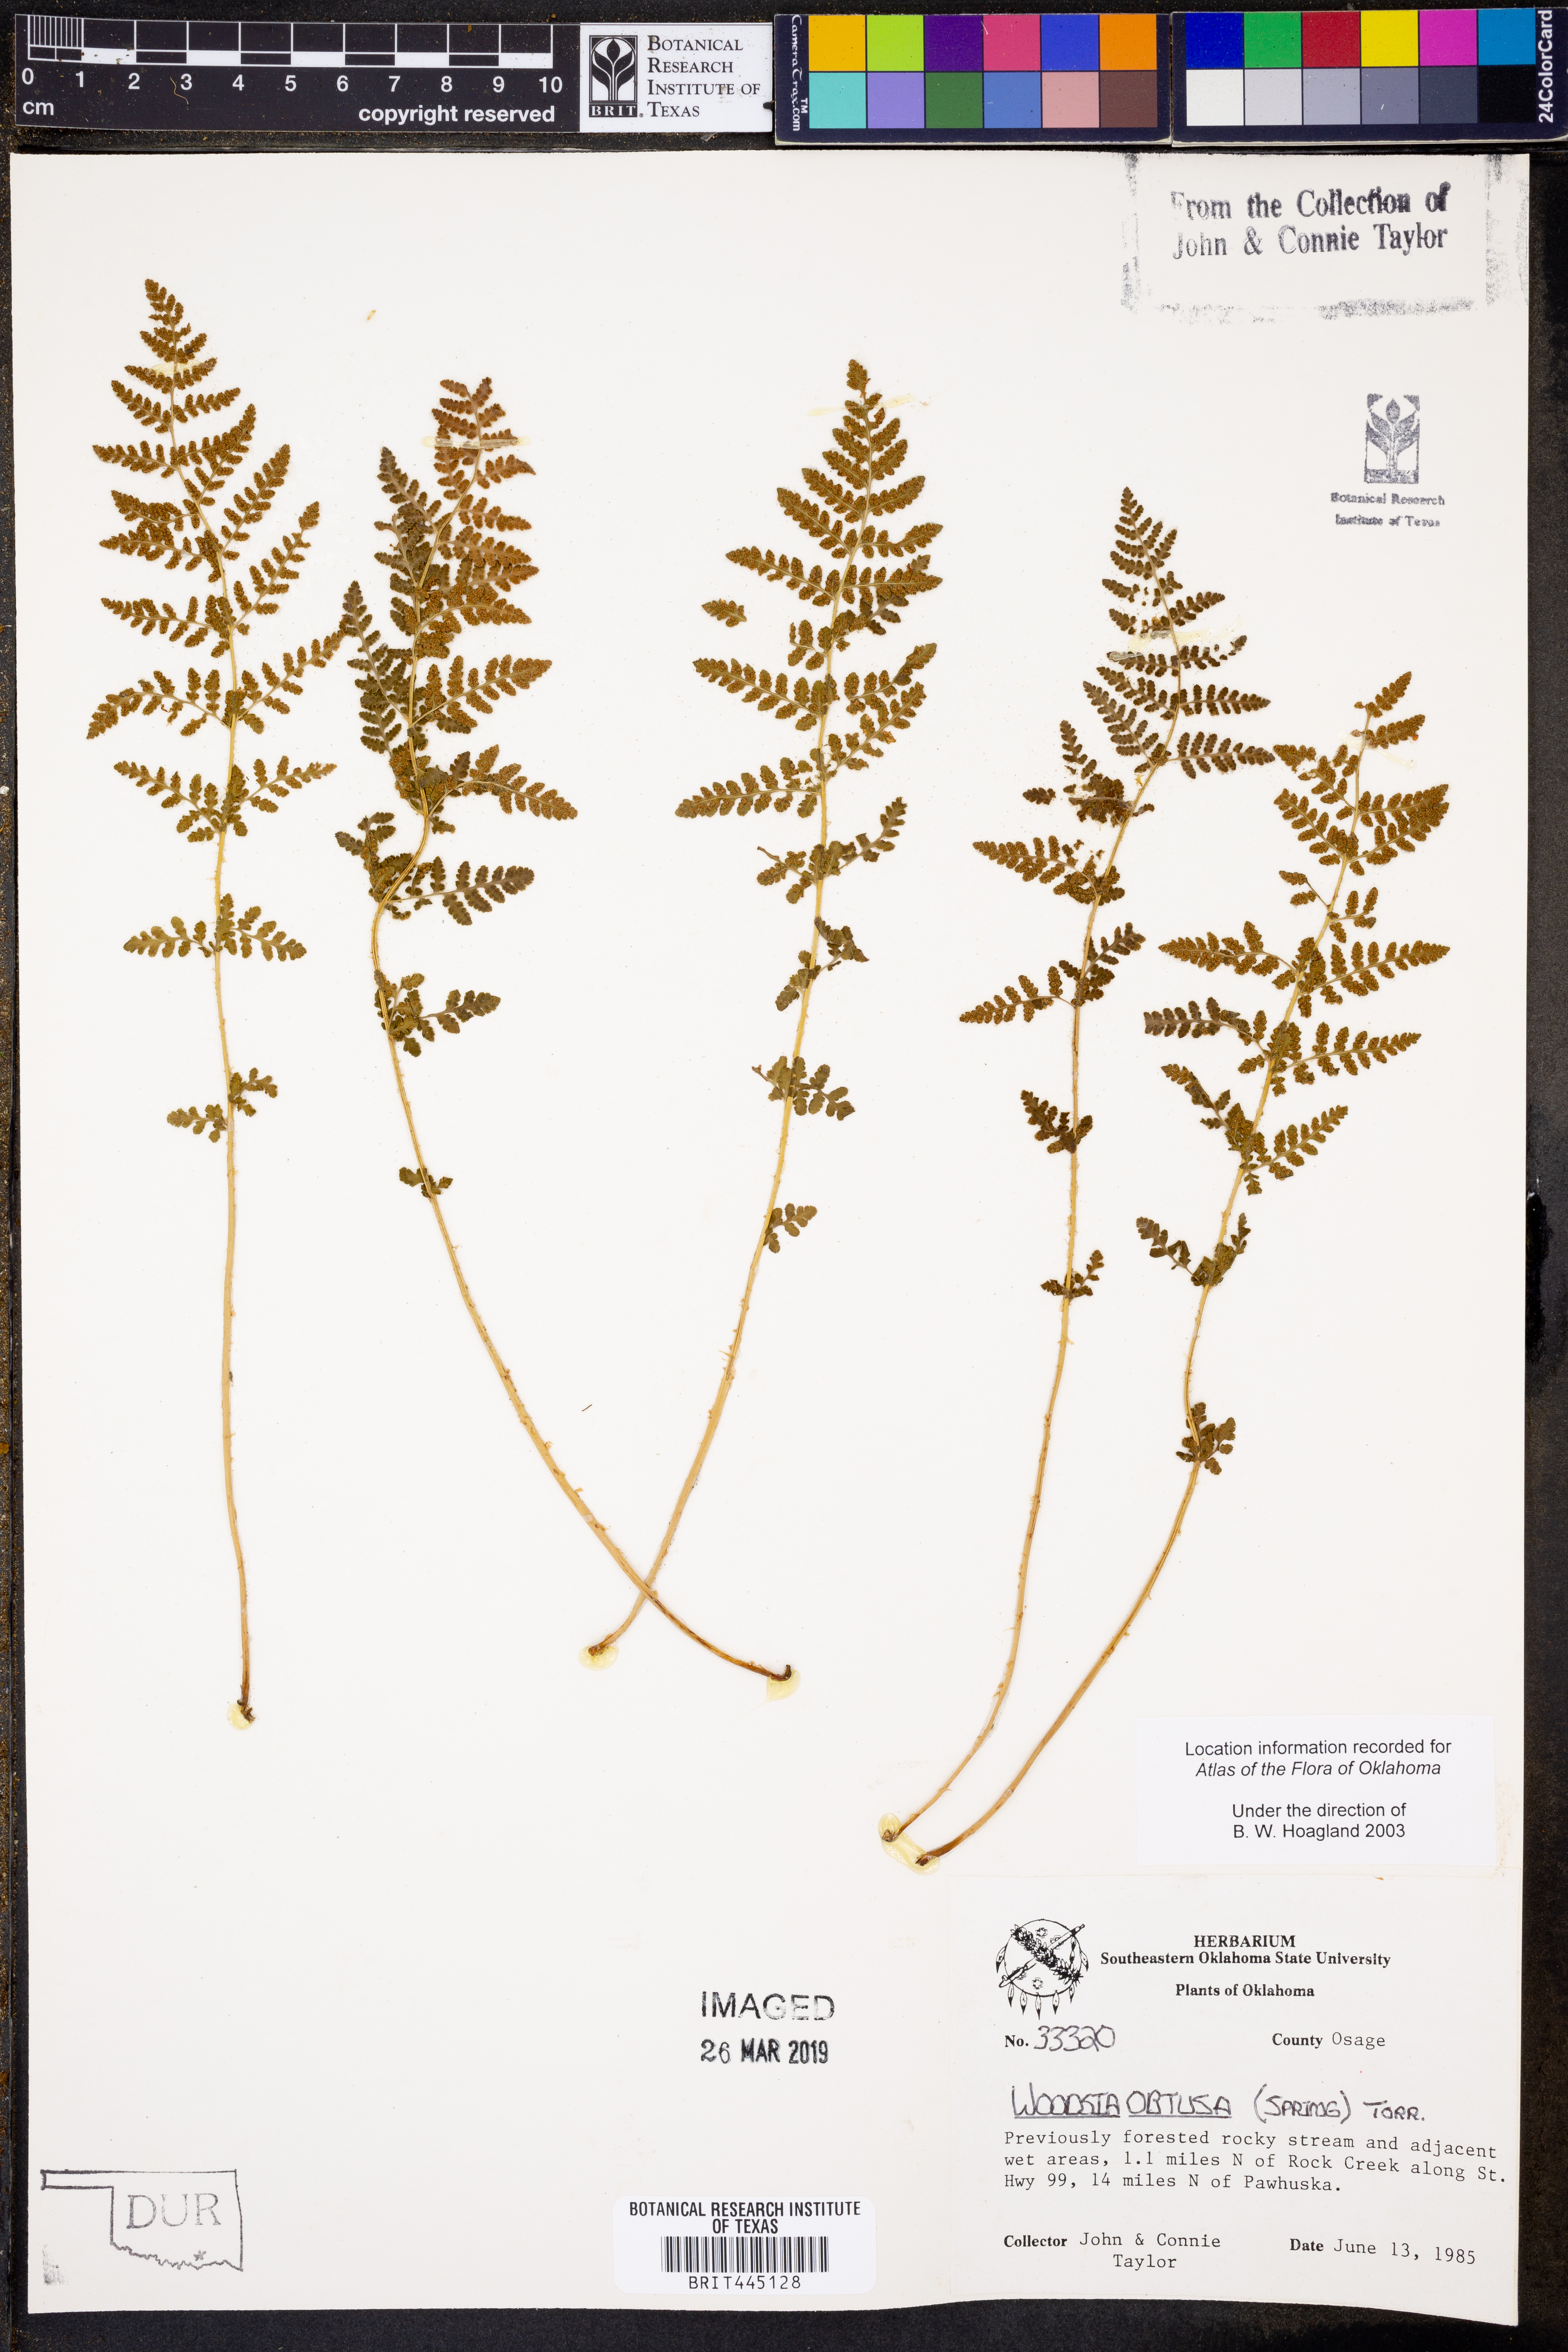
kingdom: Plantae
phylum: Tracheophyta
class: Polypodiopsida
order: Polypodiales
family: Woodsiaceae
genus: Physematium
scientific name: Physematium obtusum
